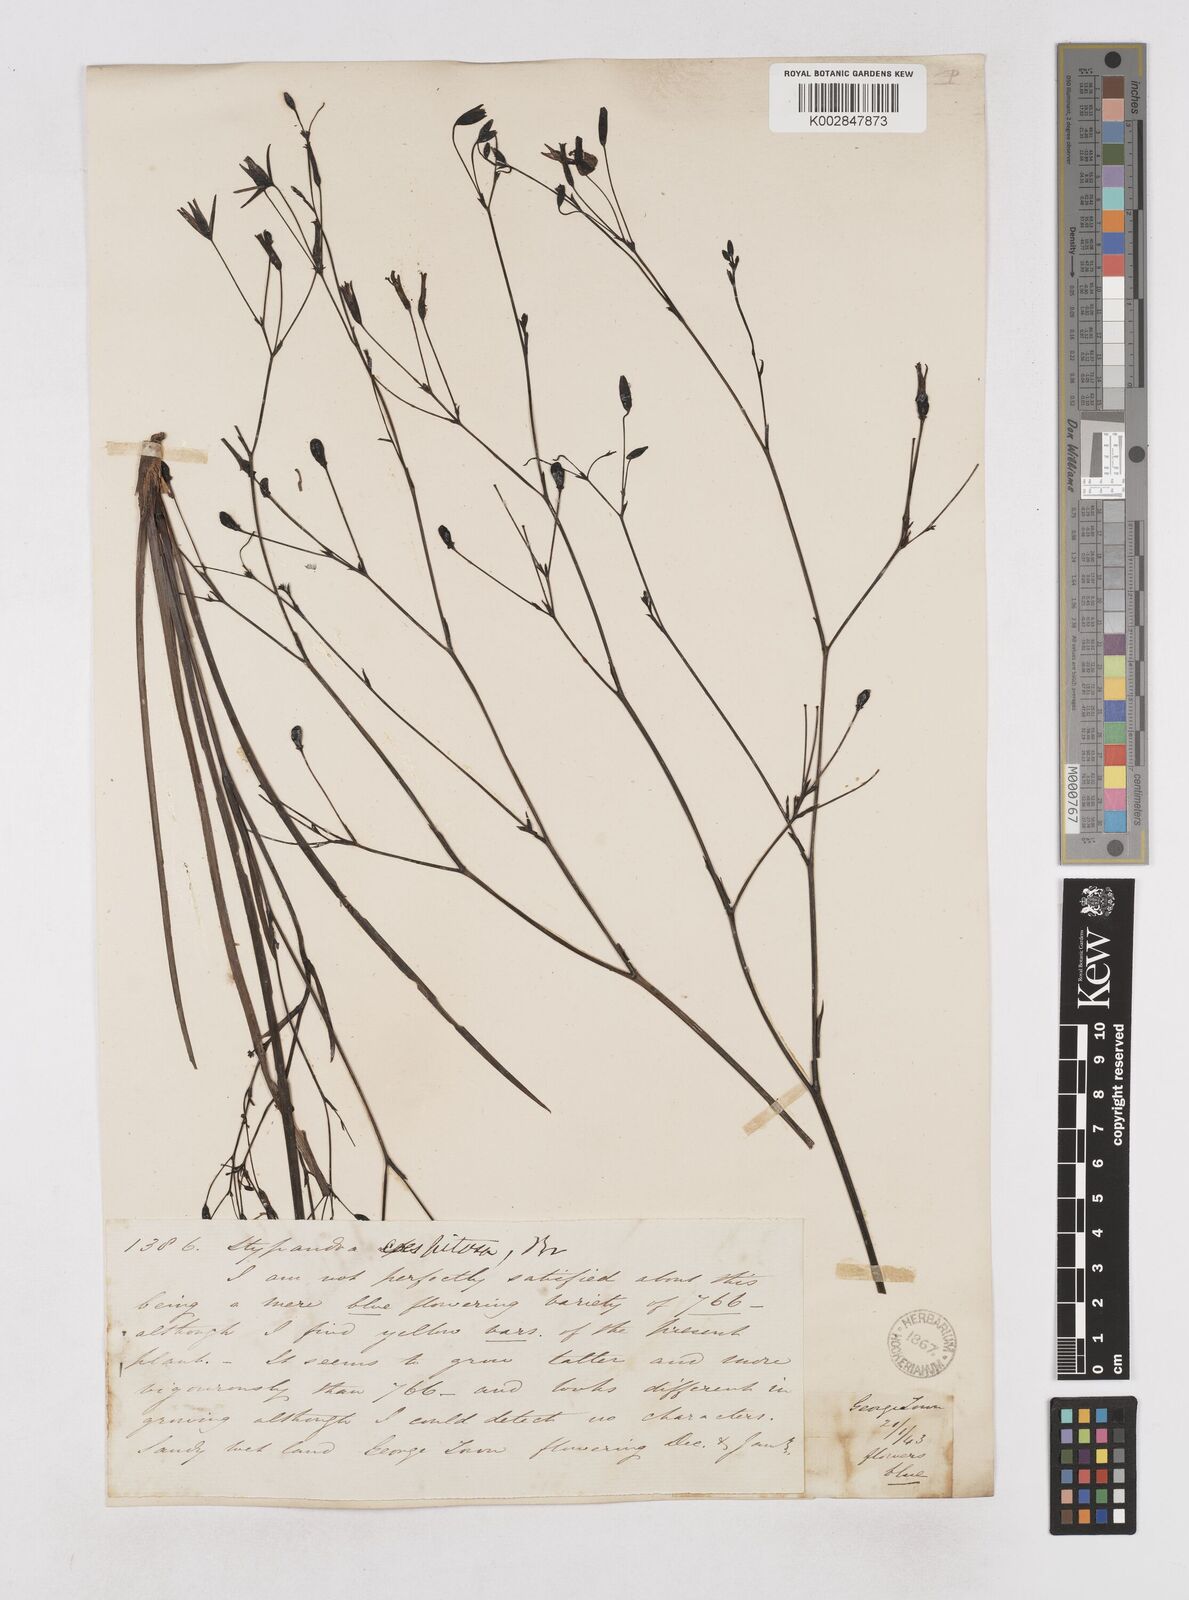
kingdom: Plantae
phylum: Tracheophyta
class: Liliopsida
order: Asparagales
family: Asphodelaceae
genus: Thelionema
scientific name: Thelionema caespitosum
